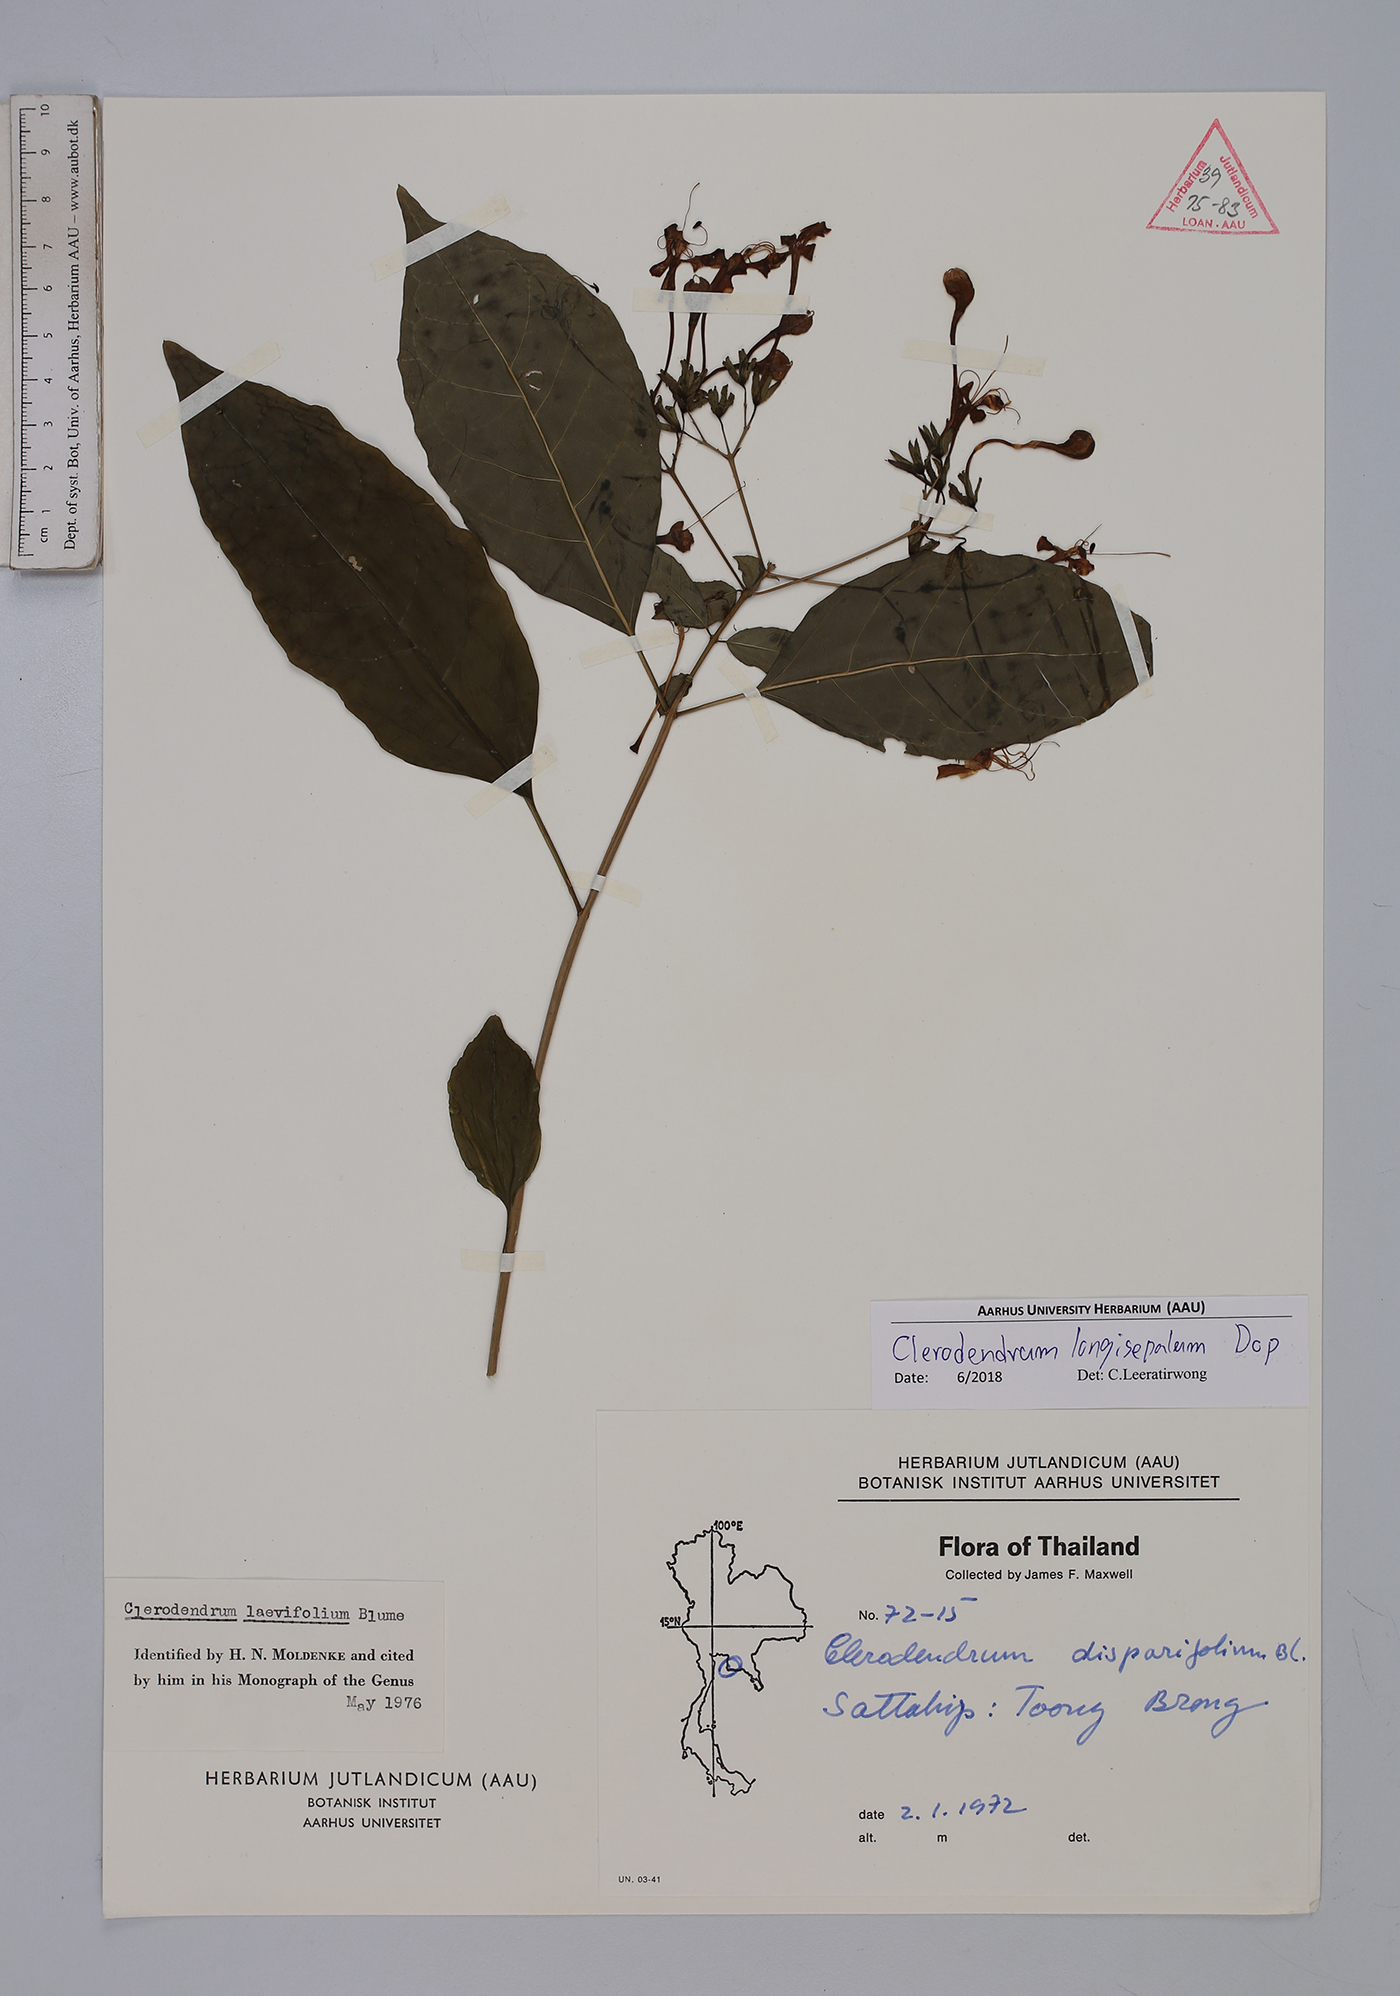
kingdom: Plantae
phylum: Tracheophyta
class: Magnoliopsida
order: Lamiales
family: Lamiaceae
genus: Clerodendrum
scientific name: Clerodendrum longisepalum
